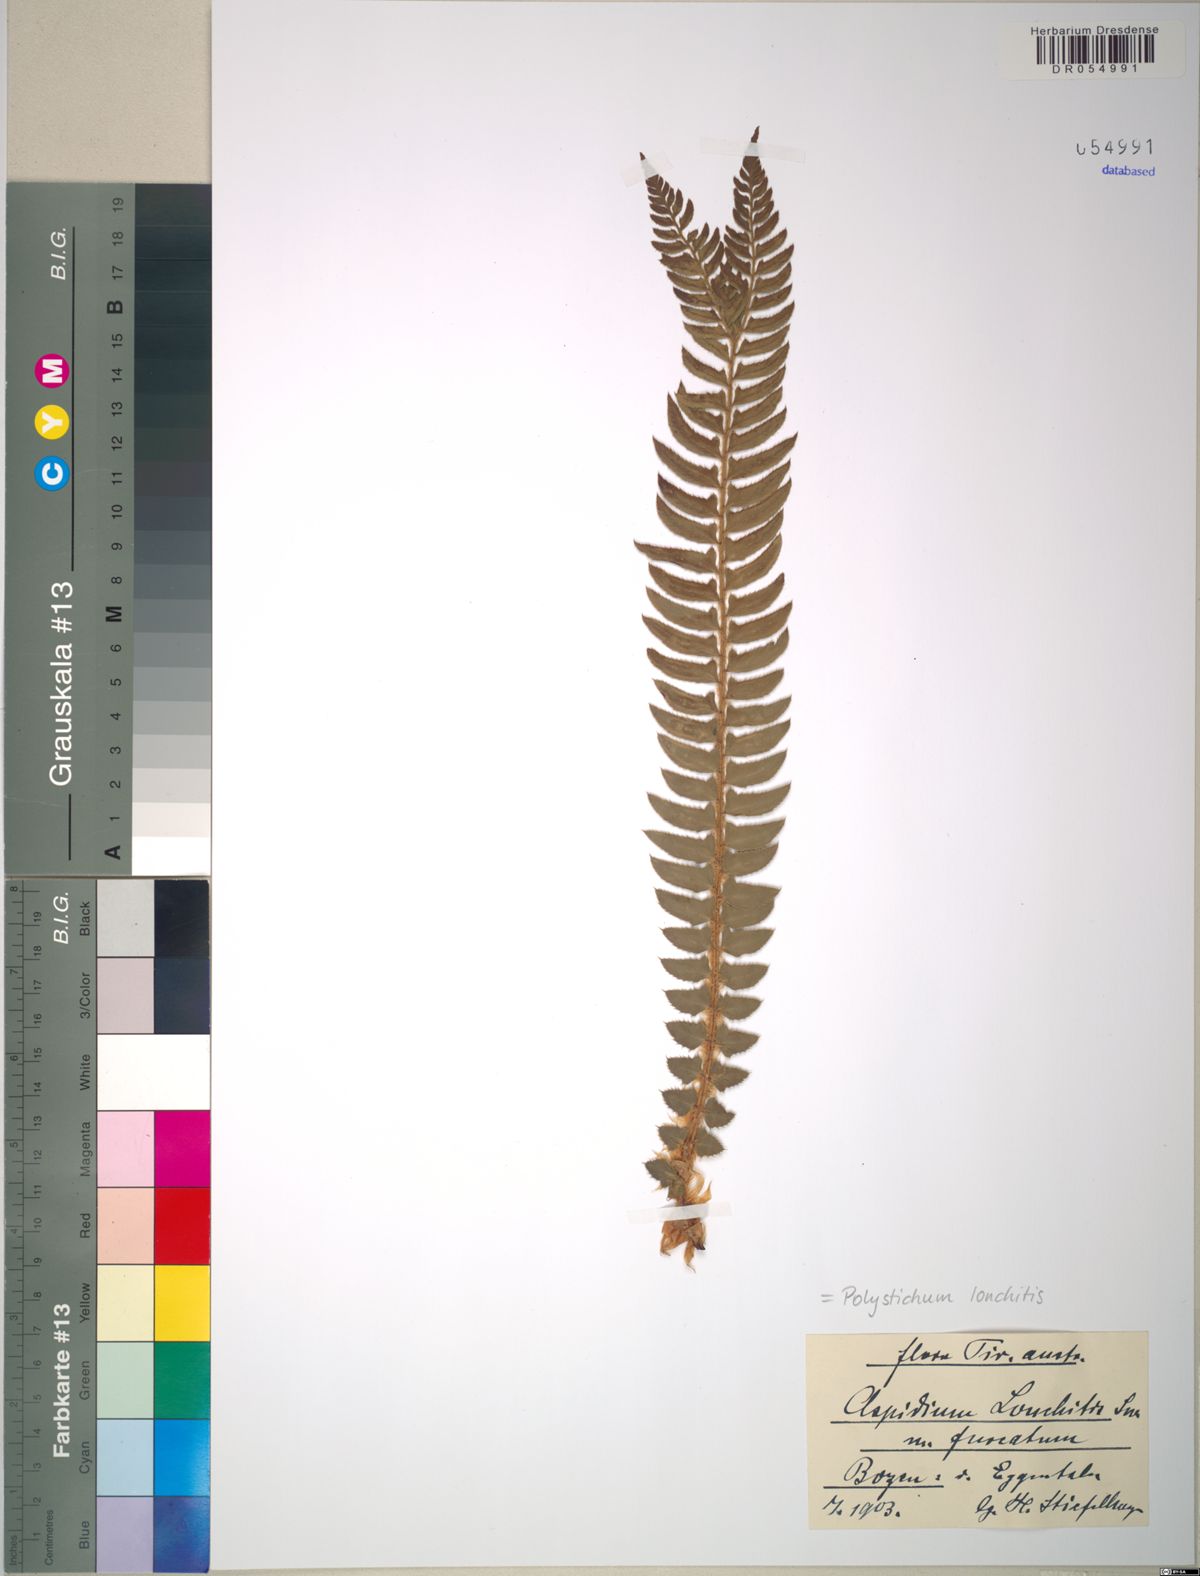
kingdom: Plantae
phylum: Tracheophyta
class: Polypodiopsida
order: Polypodiales
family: Dryopteridaceae
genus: Polystichum
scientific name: Polystichum lonchitis
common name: Holly fern
